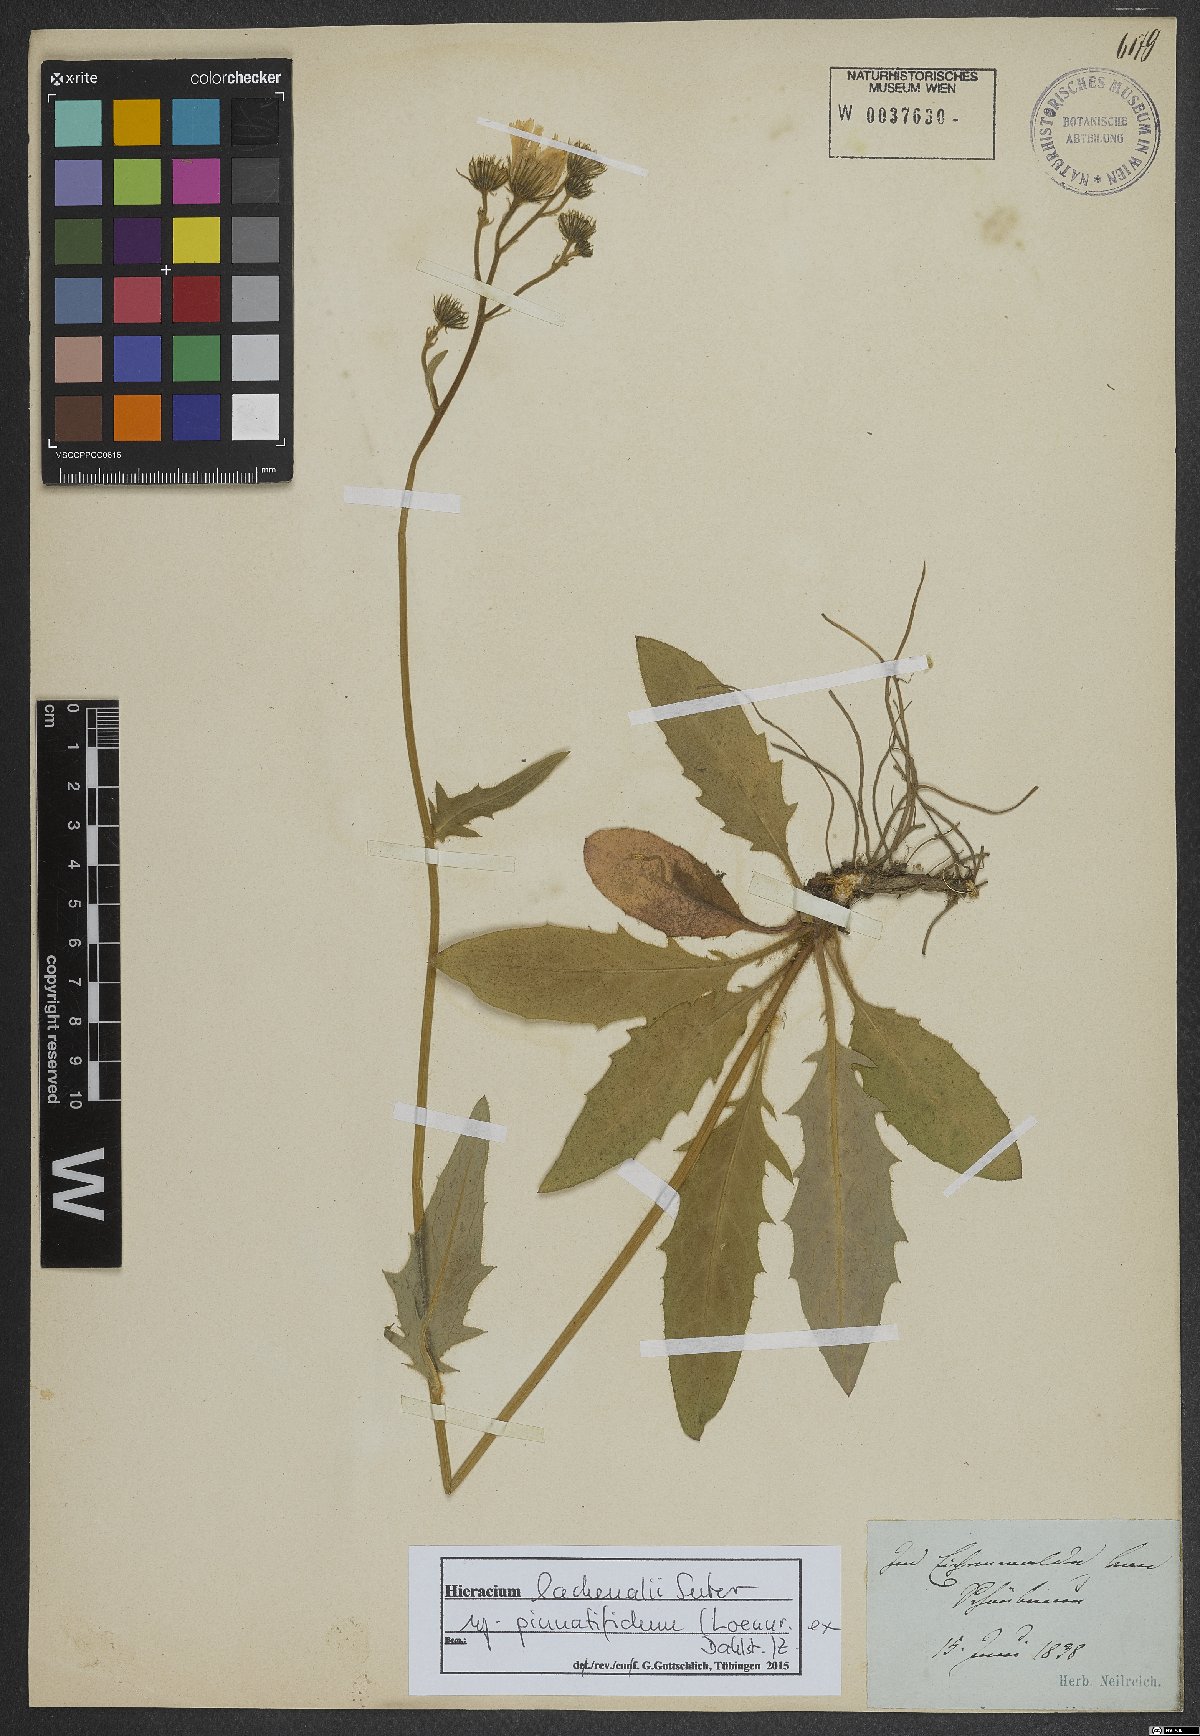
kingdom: Plantae
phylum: Tracheophyta
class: Magnoliopsida
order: Asterales
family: Asteraceae
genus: Hieracium
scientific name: Hieracium lachenalii
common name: Common hawkweed
